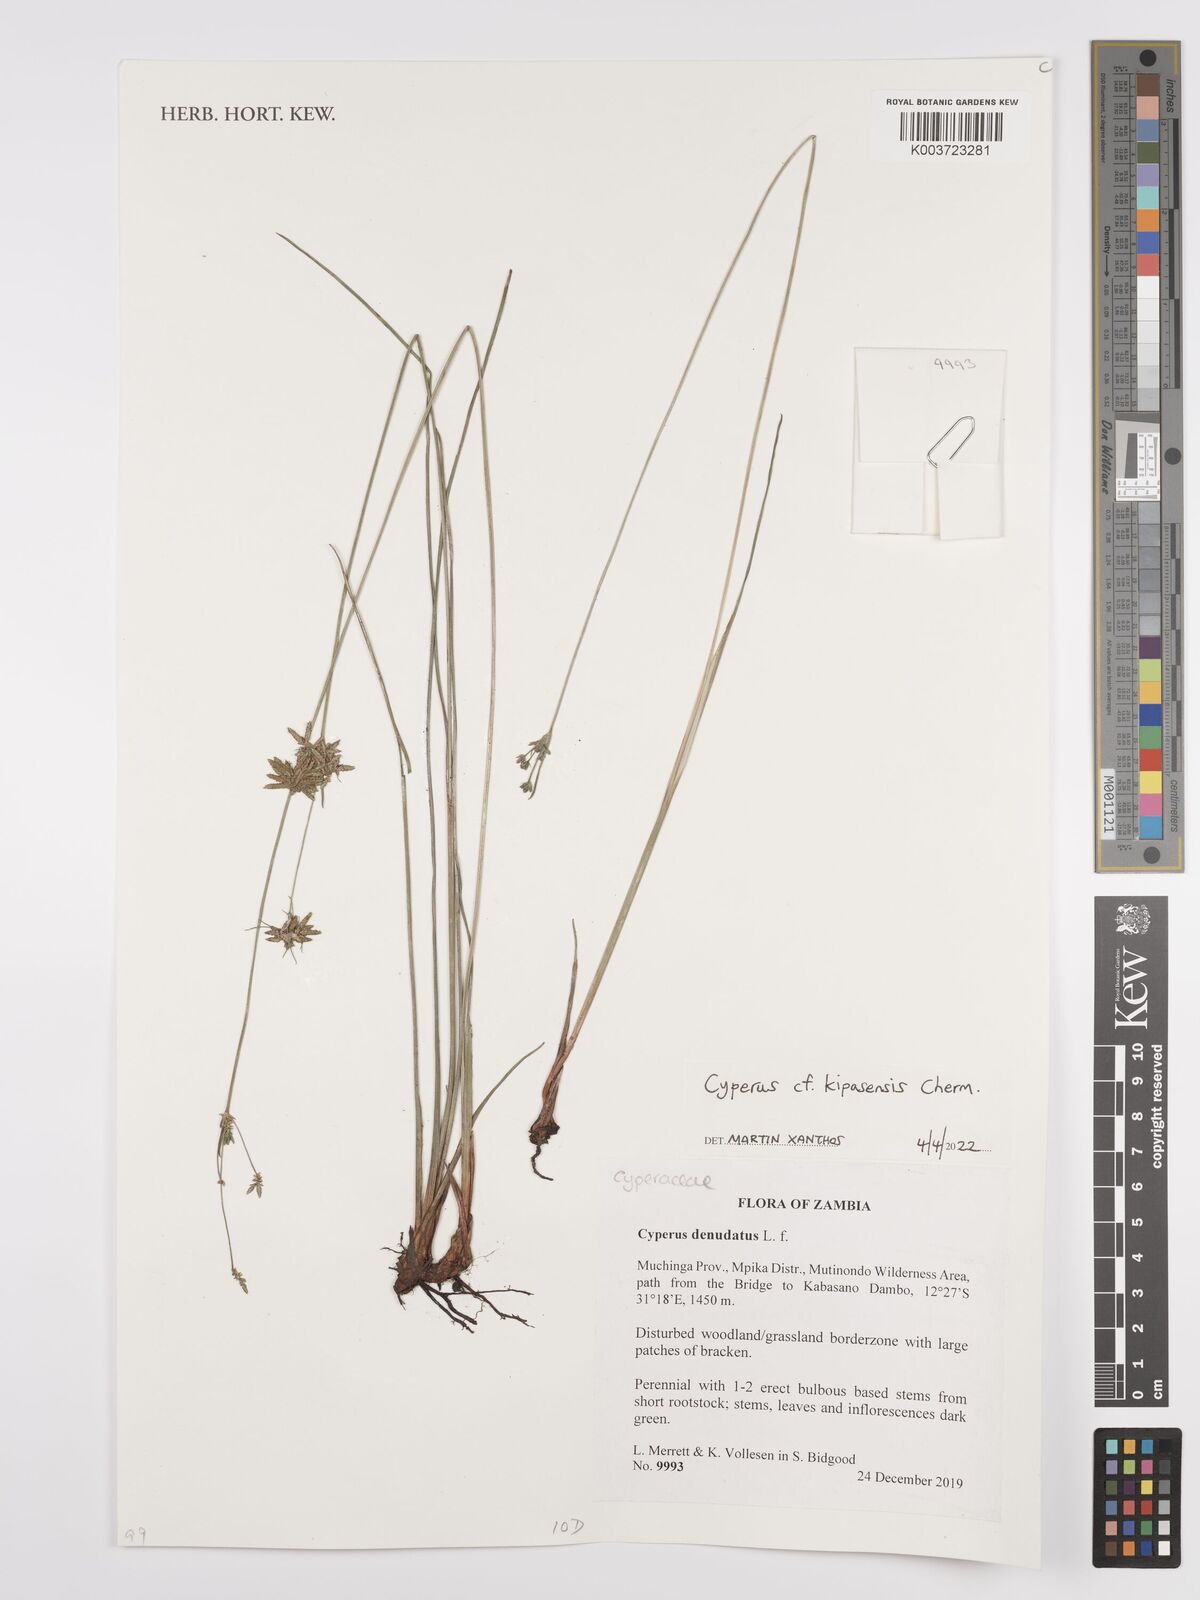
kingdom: Plantae
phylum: Tracheophyta
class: Liliopsida
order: Poales
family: Cyperaceae
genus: Cyperus
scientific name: Cyperus kipasensis
